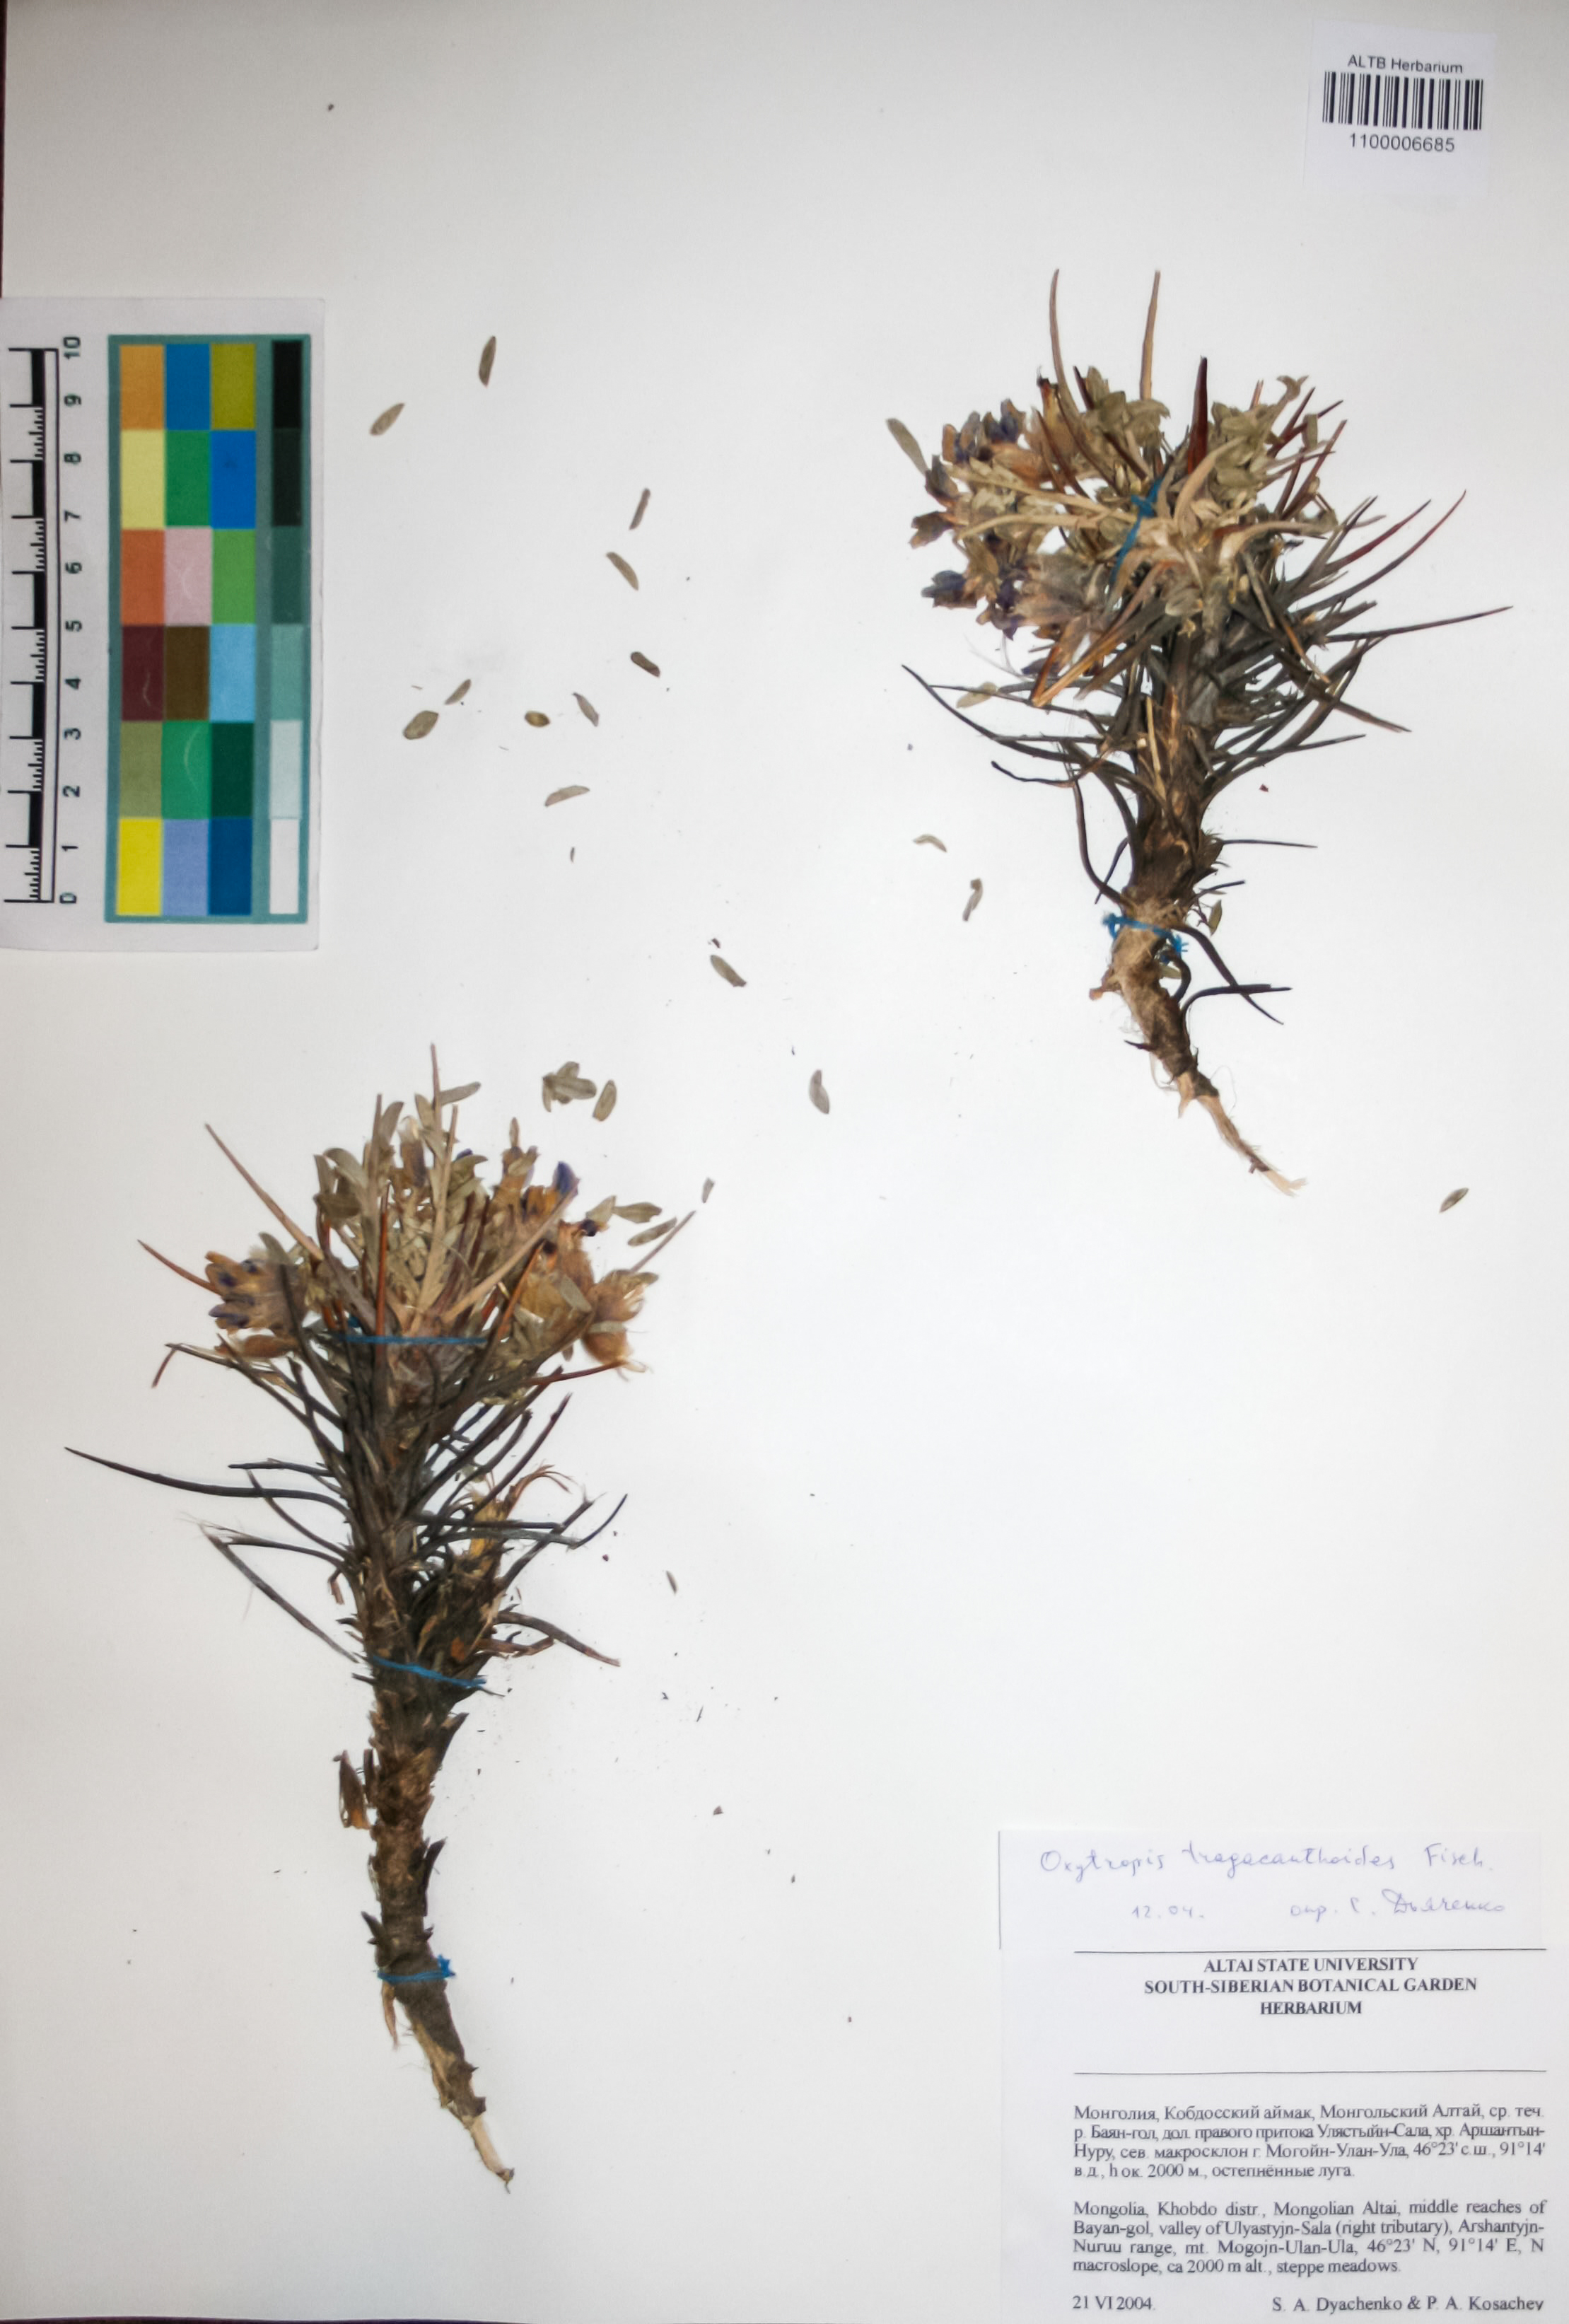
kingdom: Plantae
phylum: Tracheophyta
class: Magnoliopsida
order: Fabales
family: Fabaceae
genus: Oxytropis
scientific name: Oxytropis tragacanthoides
